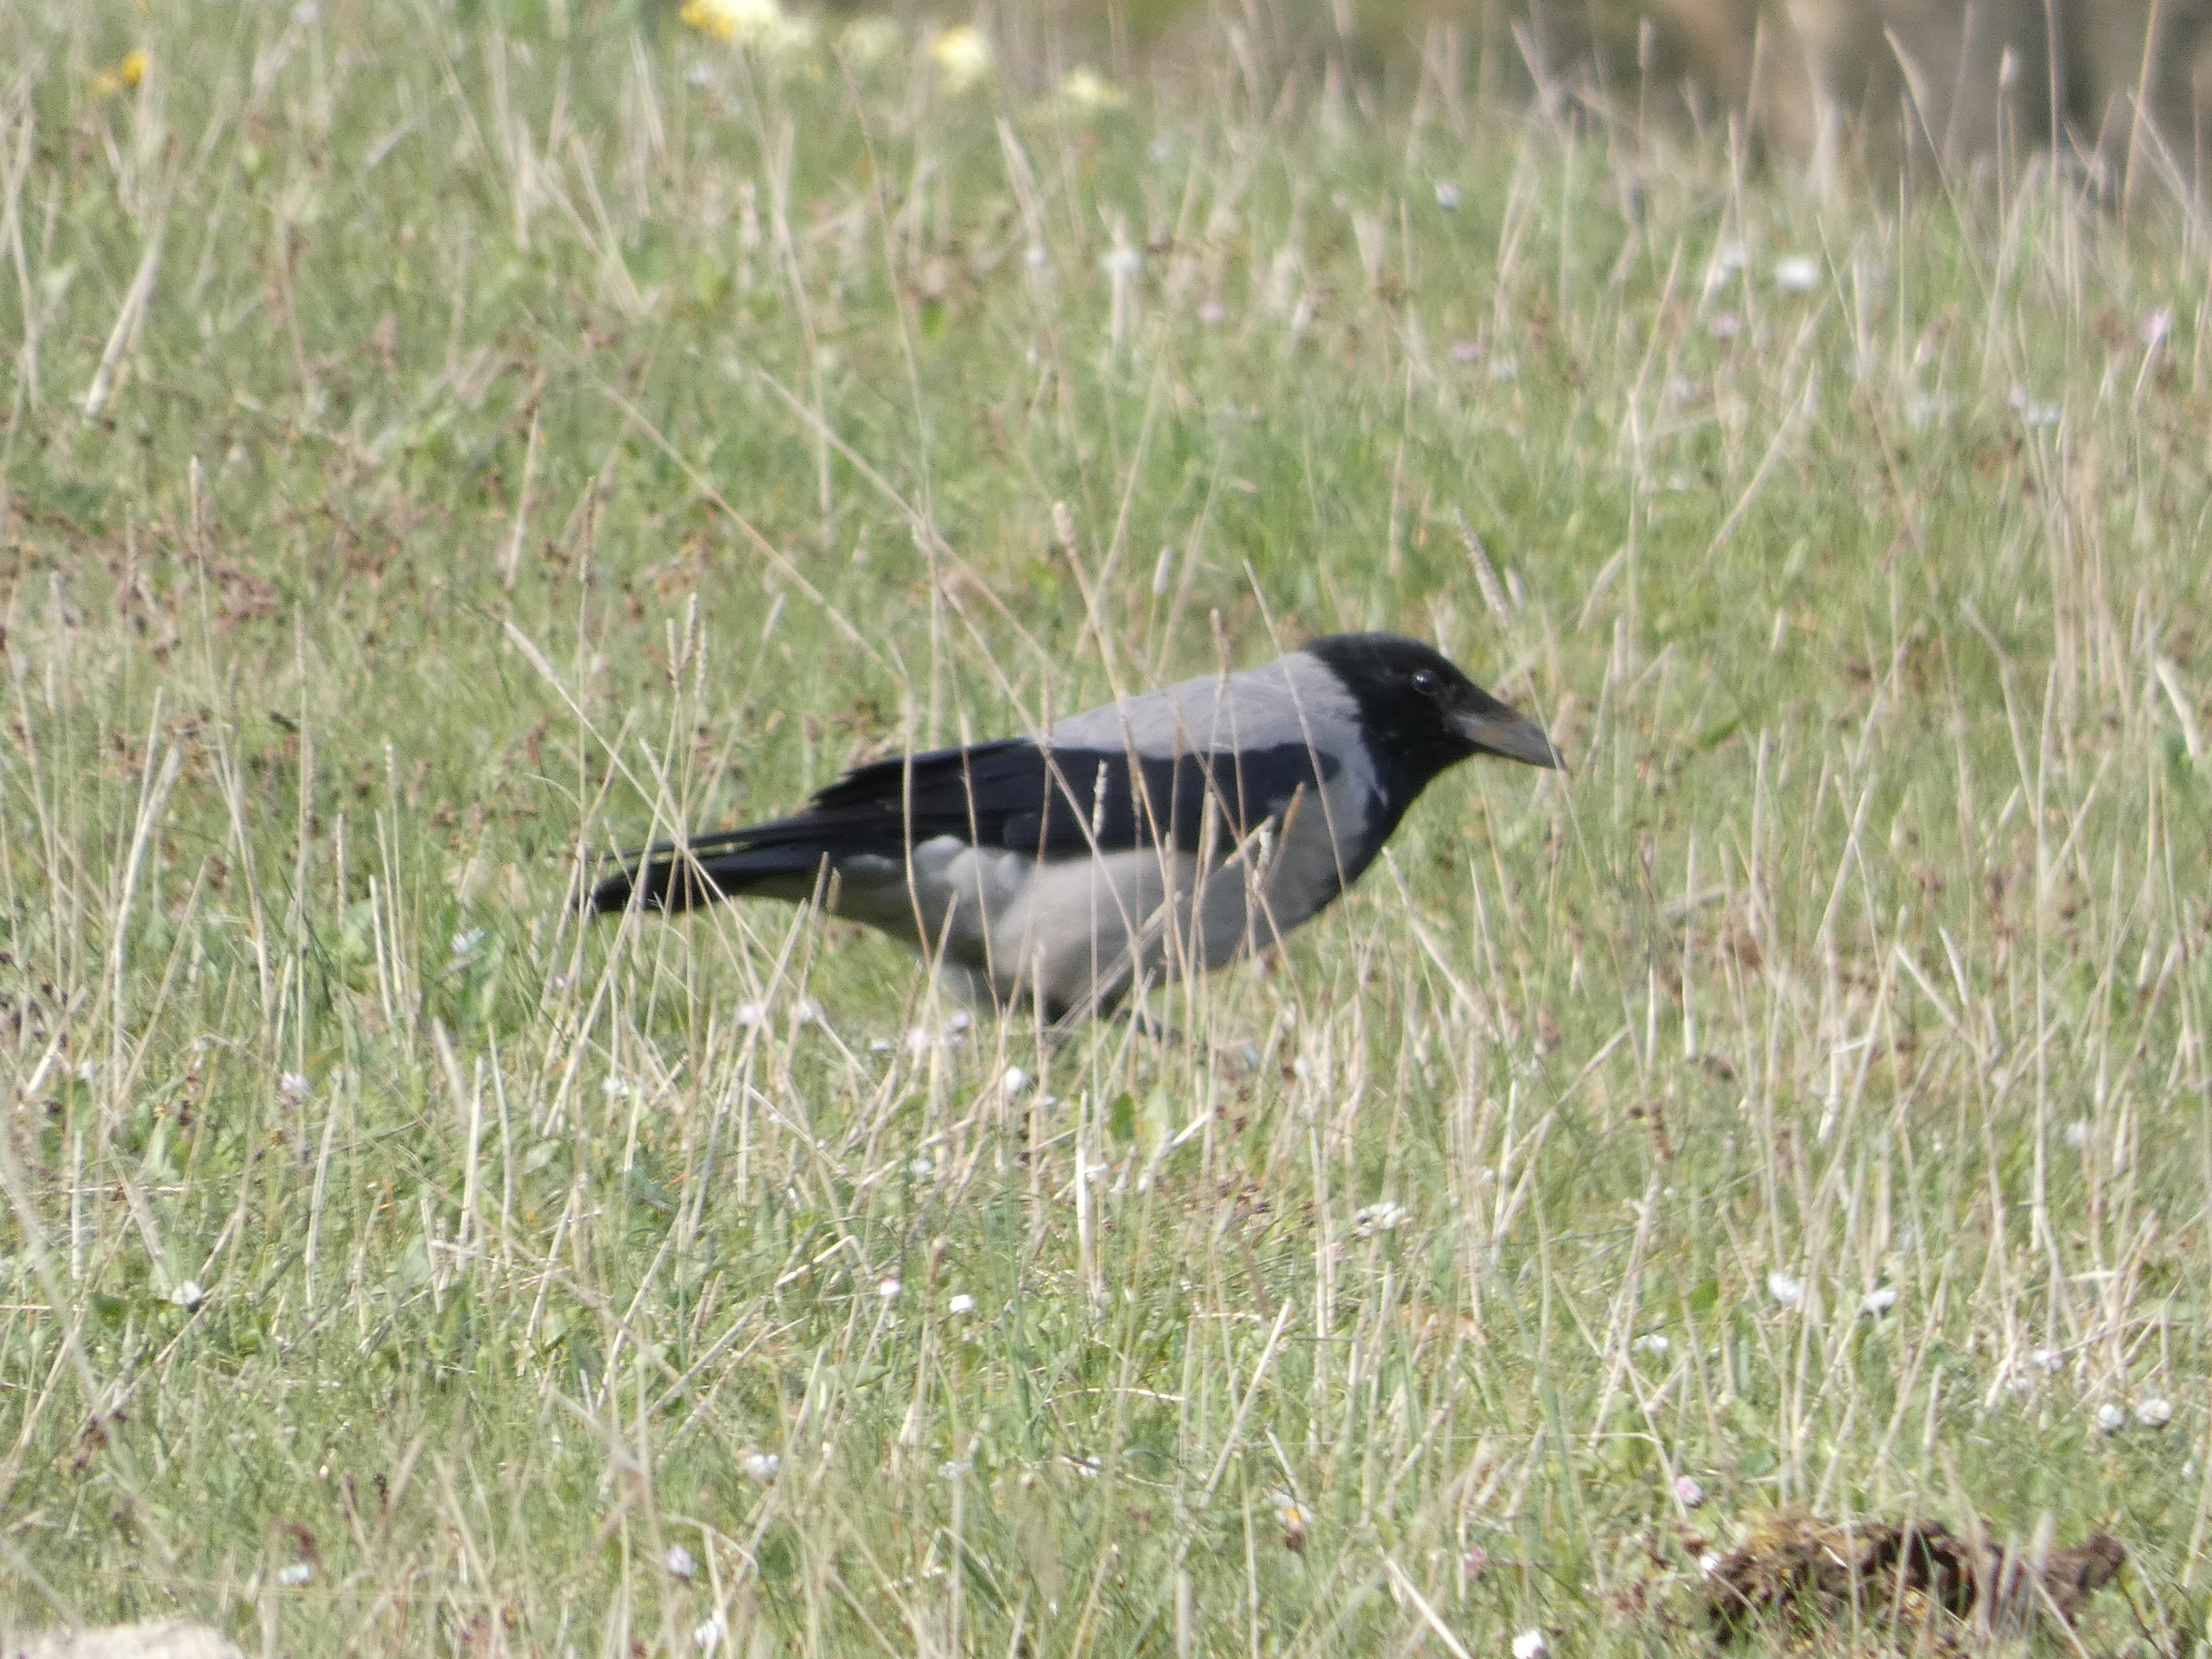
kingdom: Animalia
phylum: Chordata
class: Aves
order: Passeriformes
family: Corvidae
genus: Corvus
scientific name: Corvus cornix
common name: Gråkrage
